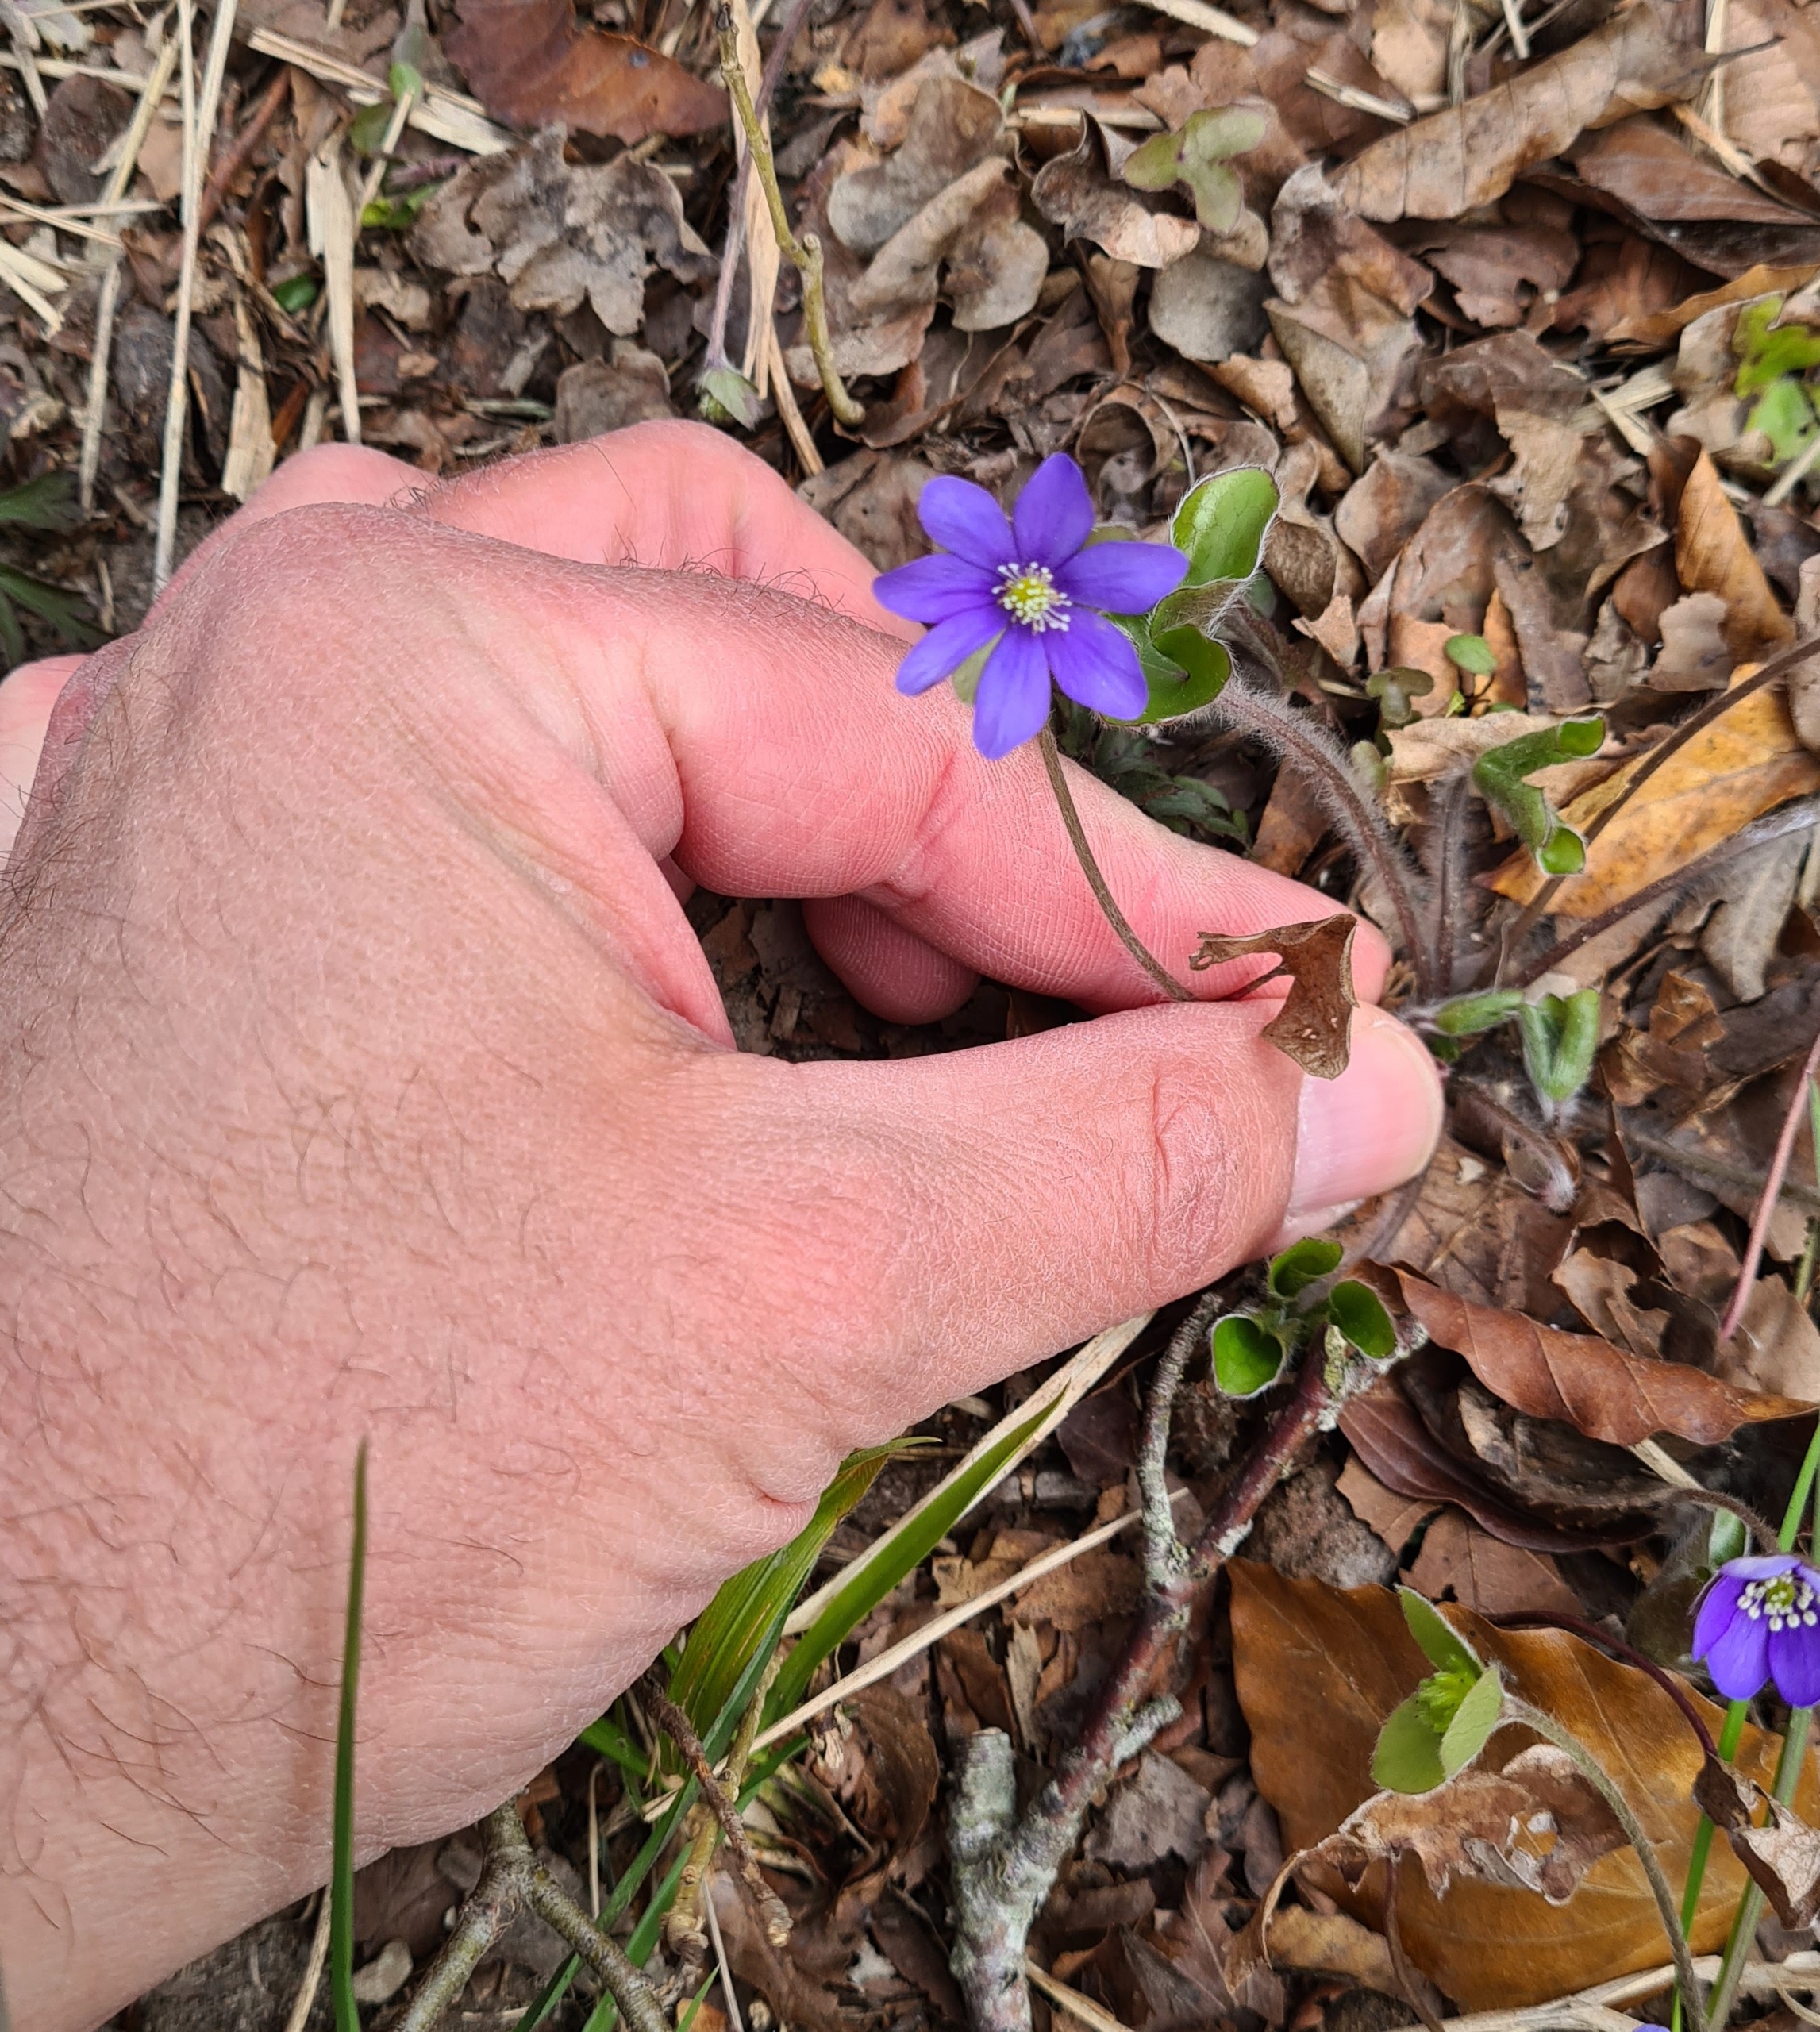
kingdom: Plantae
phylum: Tracheophyta
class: Magnoliopsida
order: Ranunculales
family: Ranunculaceae
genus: Hepatica
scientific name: Hepatica nobilis
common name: Blå anemone
